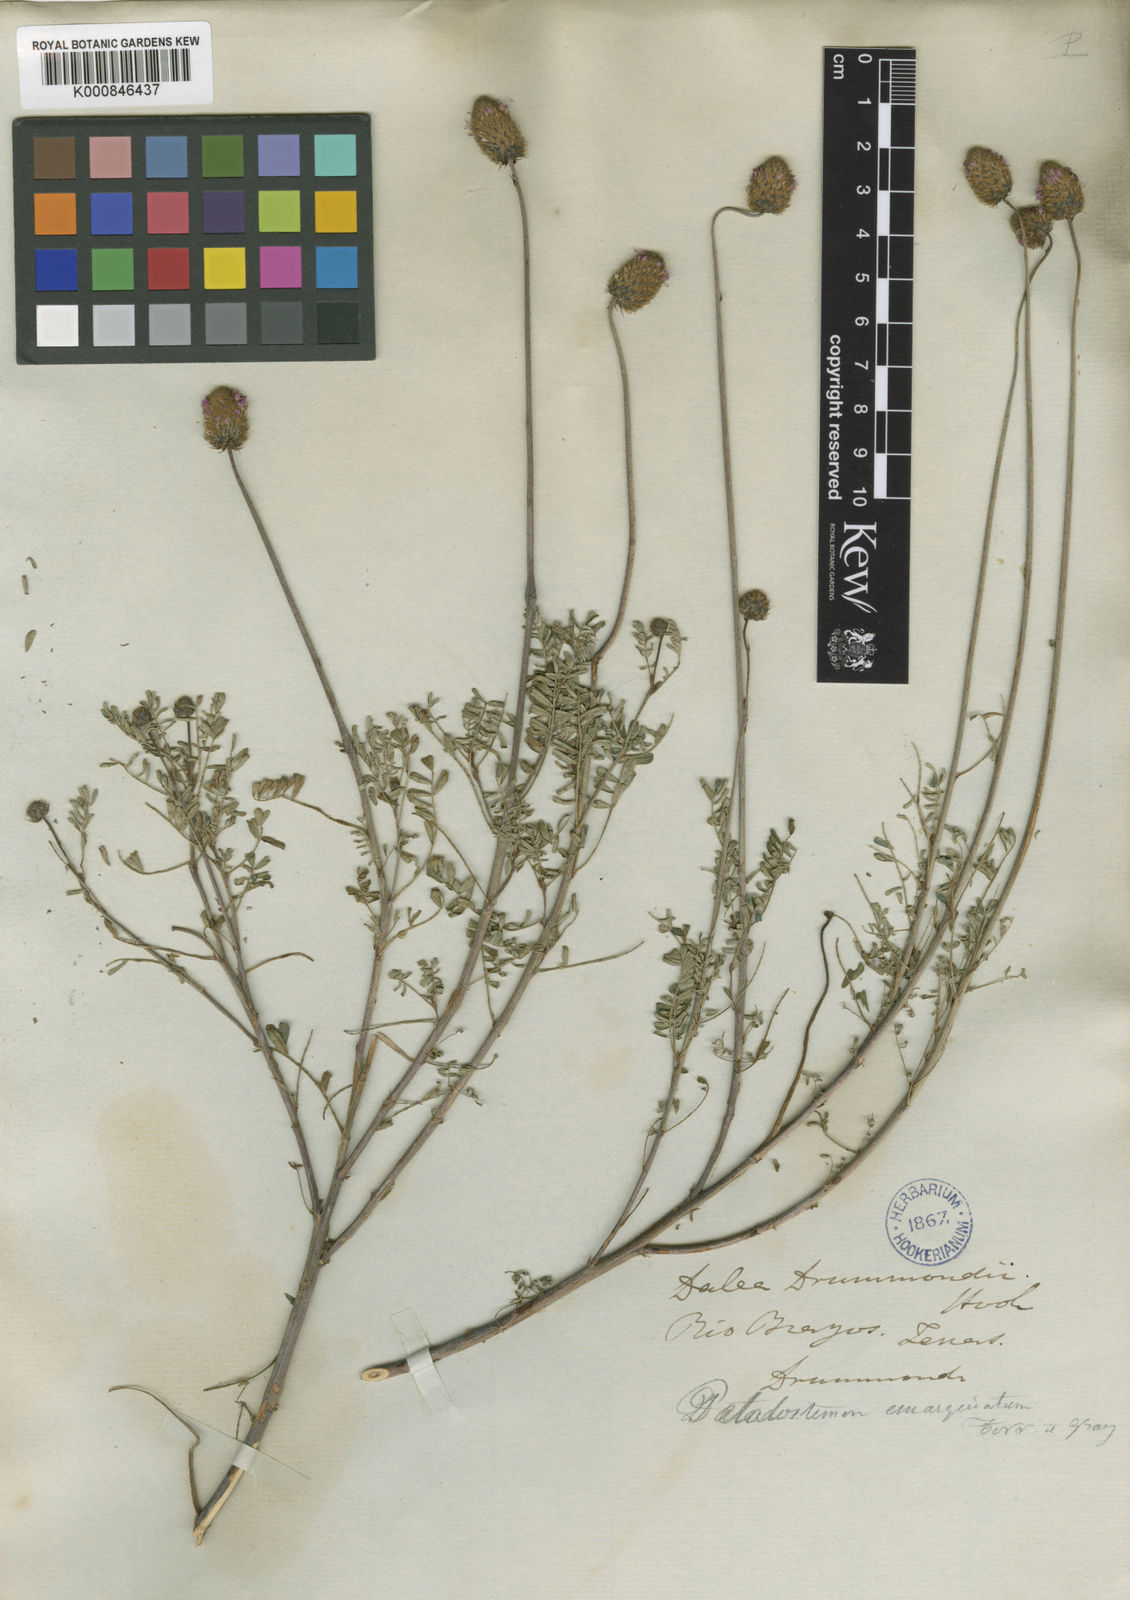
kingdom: Plantae
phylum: Tracheophyta
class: Magnoliopsida
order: Fabales
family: Fabaceae
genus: Dalea
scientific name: Dalea emarginata
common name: Wedgeleaf prairie clover
